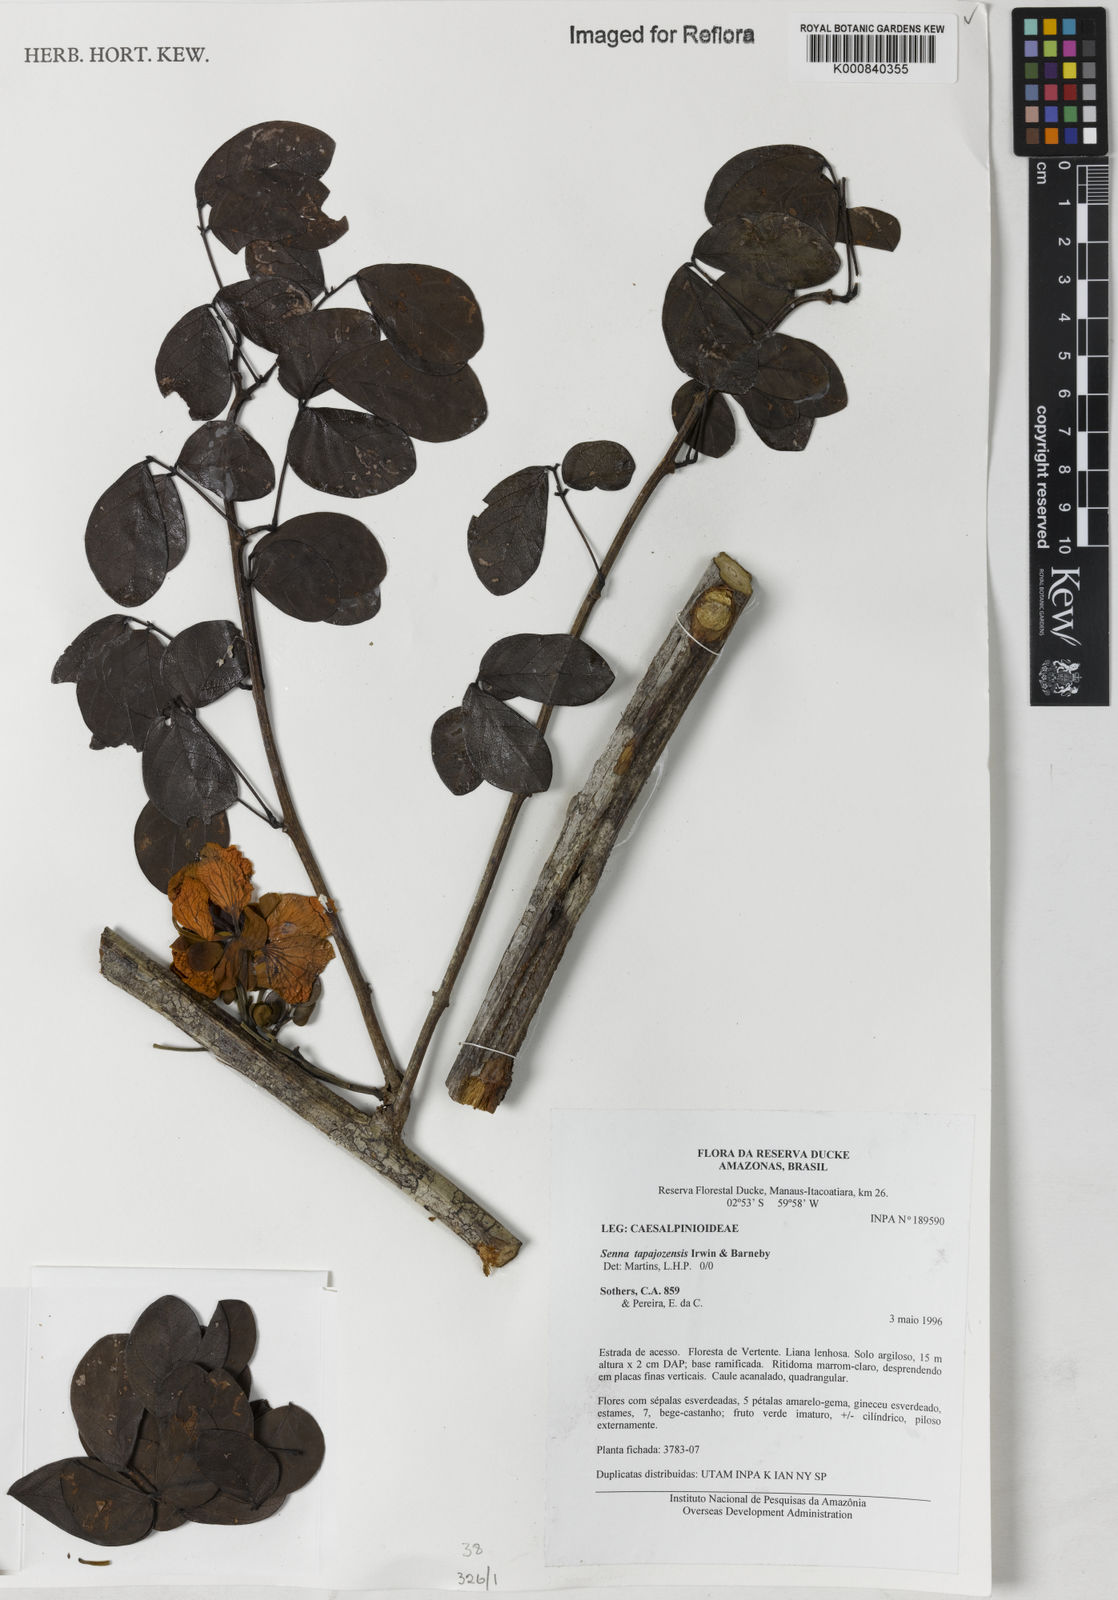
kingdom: Plantae
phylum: Tracheophyta
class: Magnoliopsida
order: Fabales
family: Fabaceae
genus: Senna
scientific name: Senna tapajozensis
